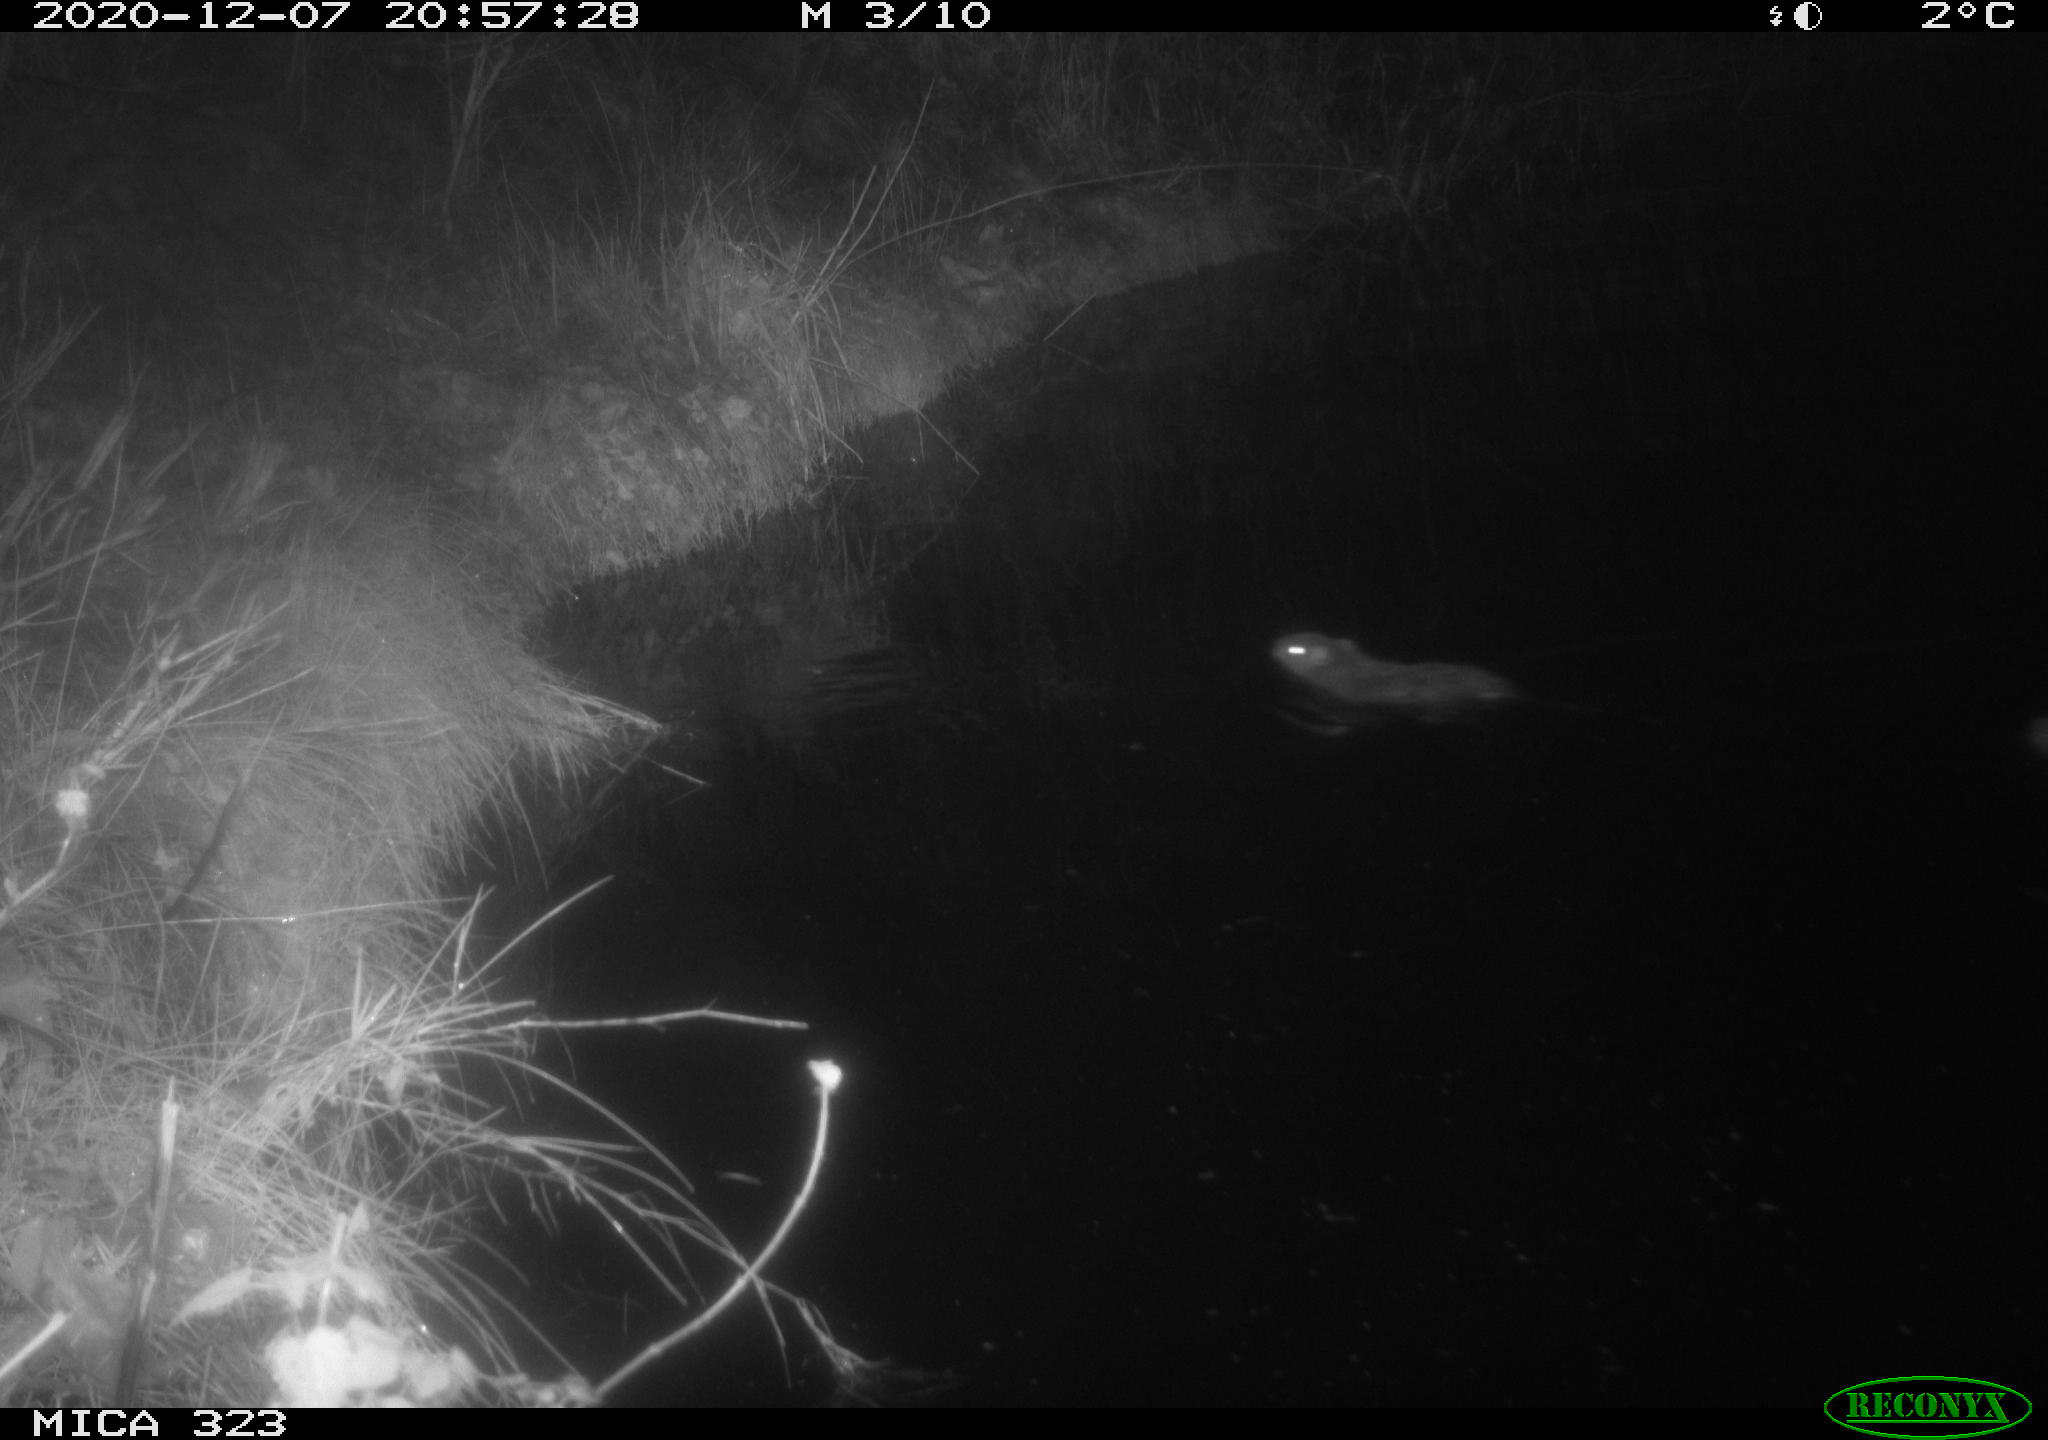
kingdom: Animalia
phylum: Chordata
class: Mammalia
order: Rodentia
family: Myocastoridae
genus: Myocastor
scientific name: Myocastor coypus
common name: Coypu
